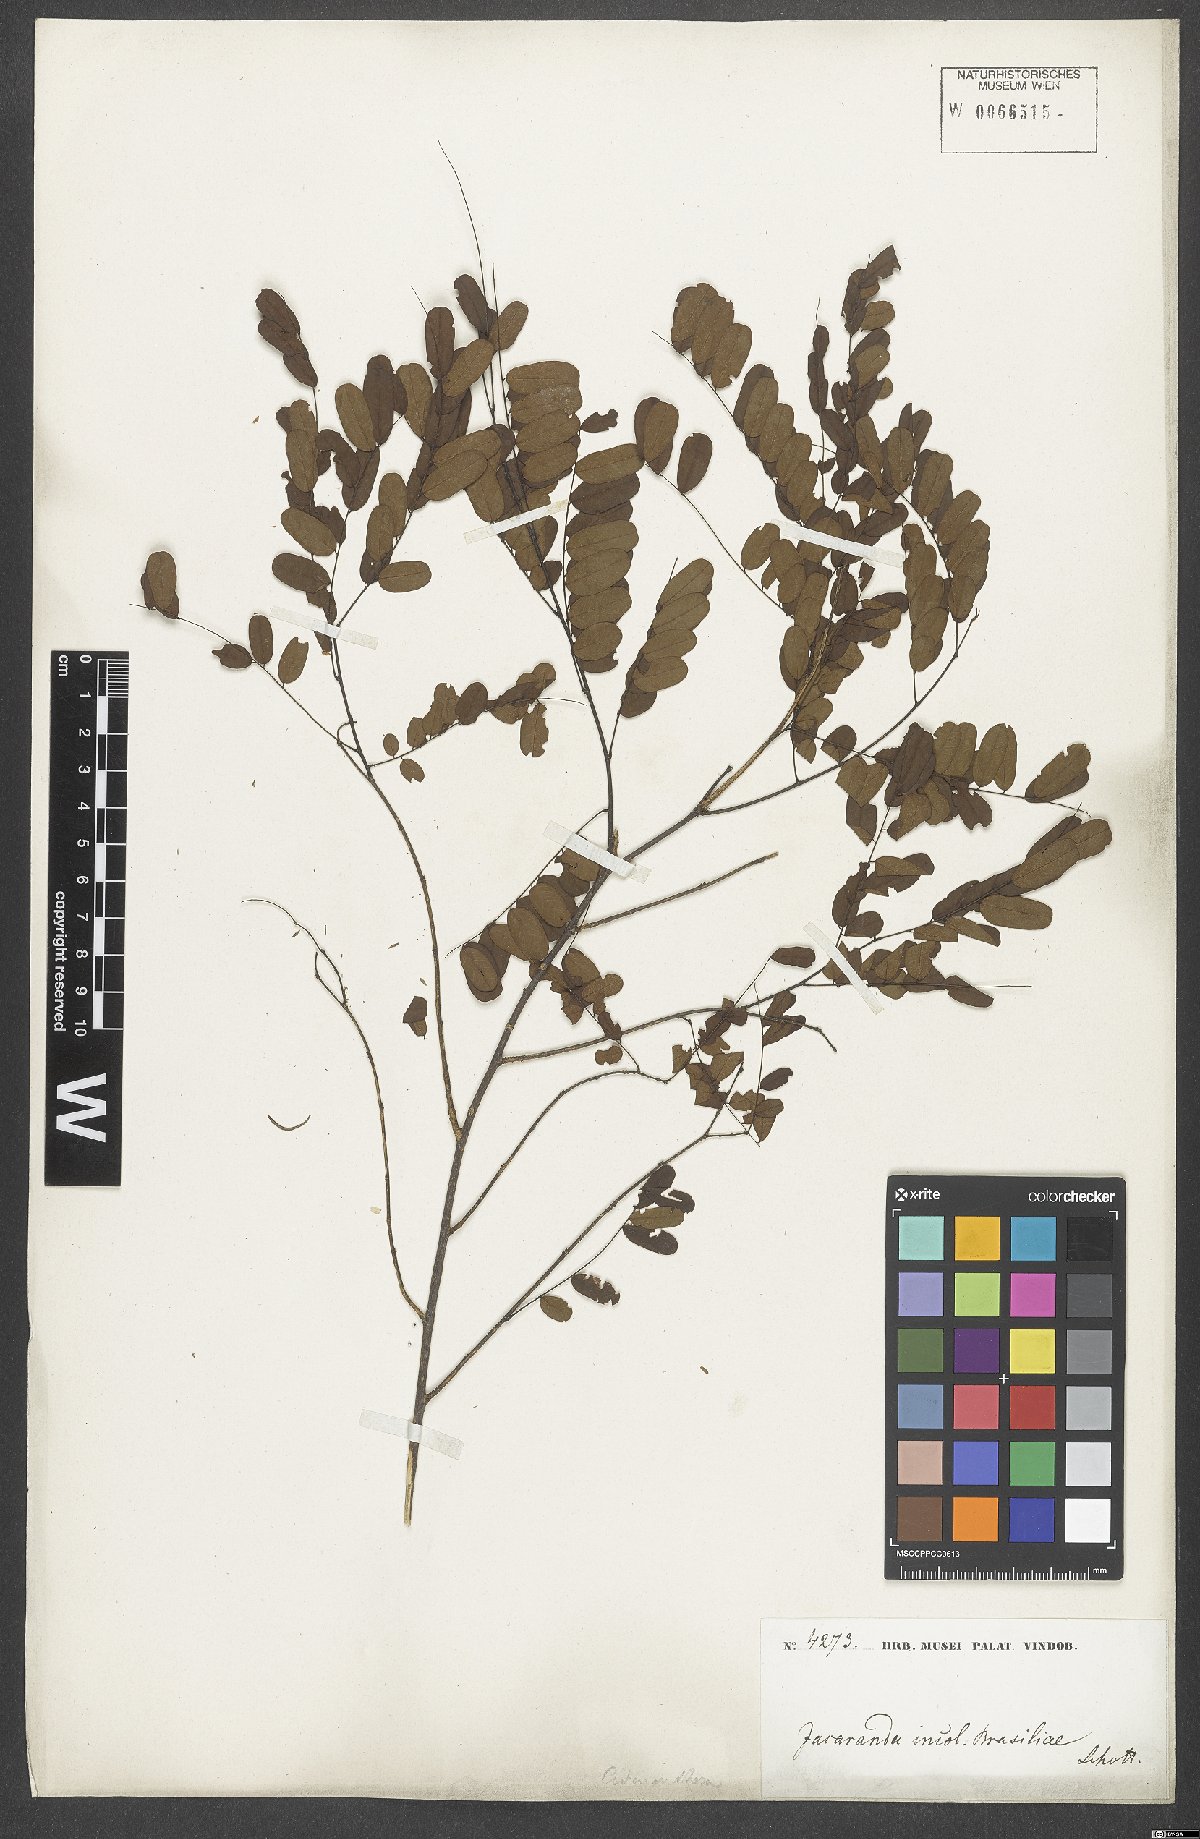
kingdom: Plantae
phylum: Tracheophyta
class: Magnoliopsida
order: Fabales
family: Fabaceae
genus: Adenanthera
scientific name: Adenanthera
